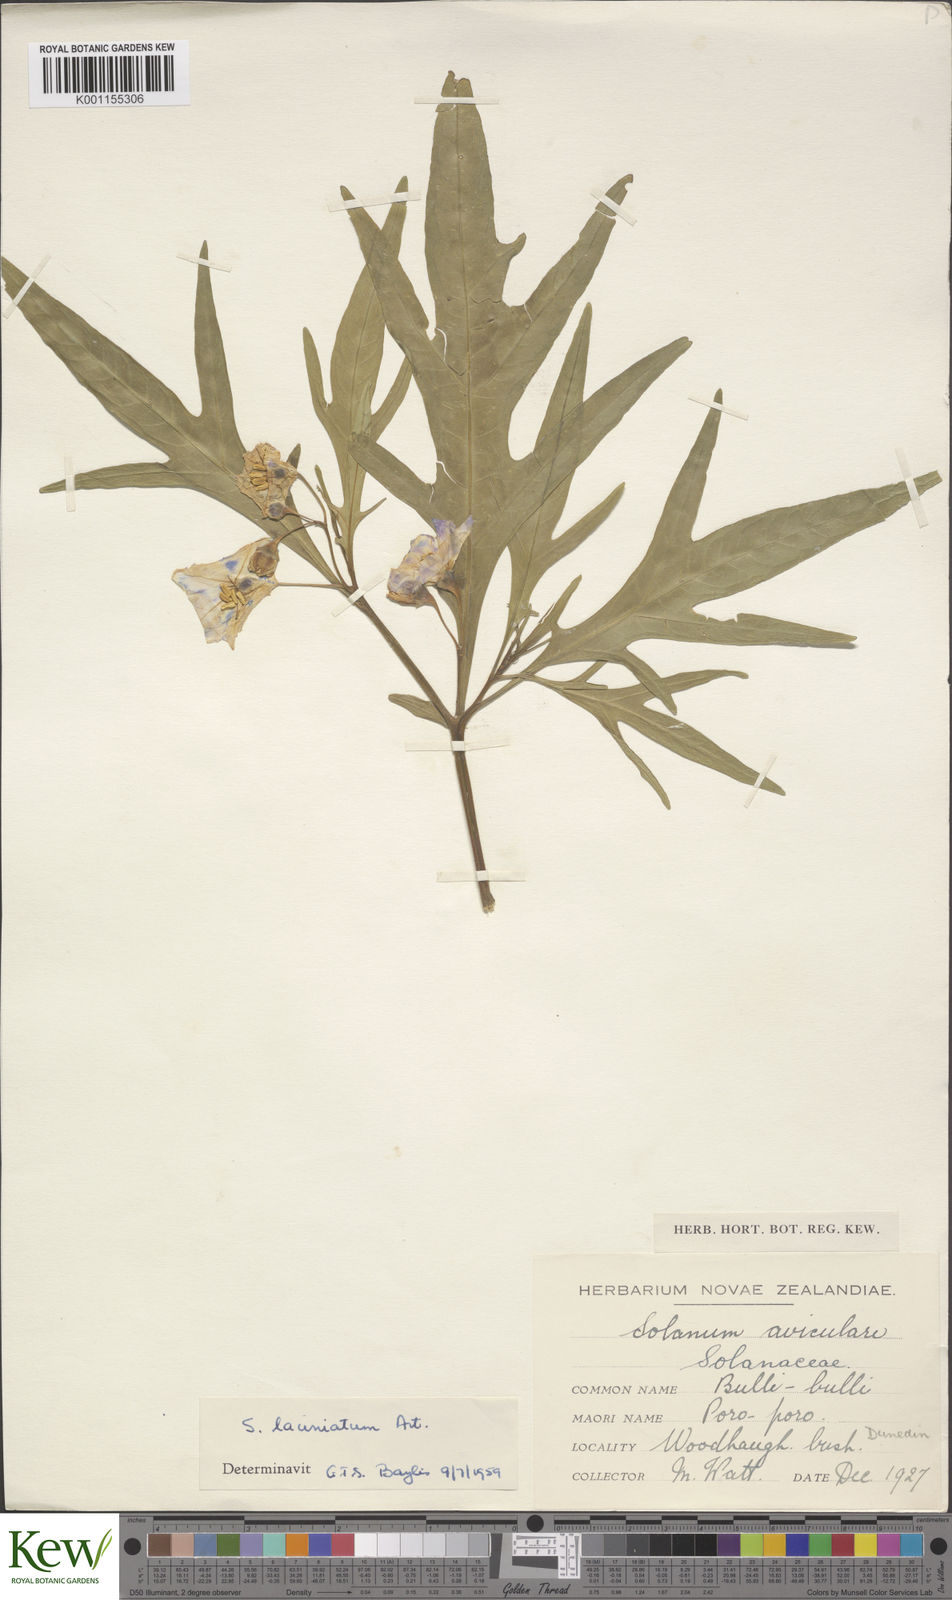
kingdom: Plantae
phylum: Tracheophyta
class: Magnoliopsida
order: Solanales
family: Solanaceae
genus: Solanum
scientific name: Solanum laciniatum
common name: Kangaroo-apple
